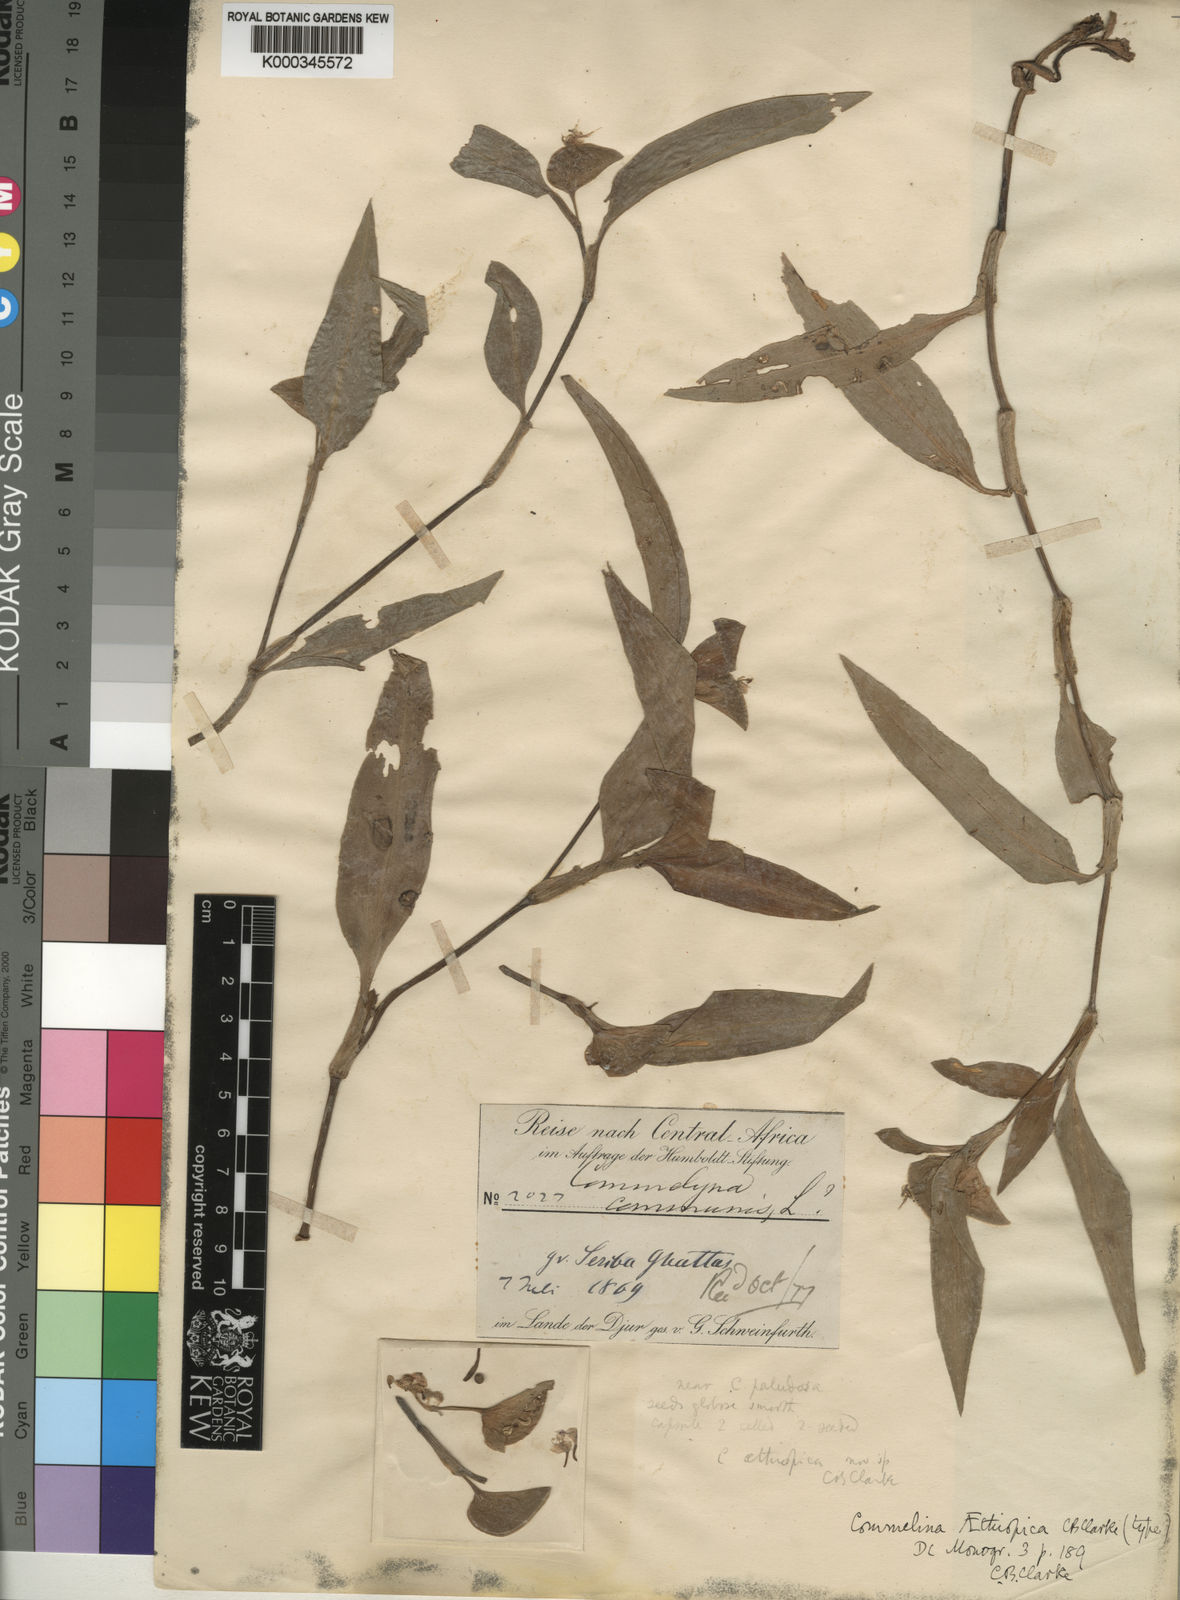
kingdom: Plantae
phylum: Tracheophyta
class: Liliopsida
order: Commelinales
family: Commelinaceae
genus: Commelina
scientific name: Commelina bracteosa
